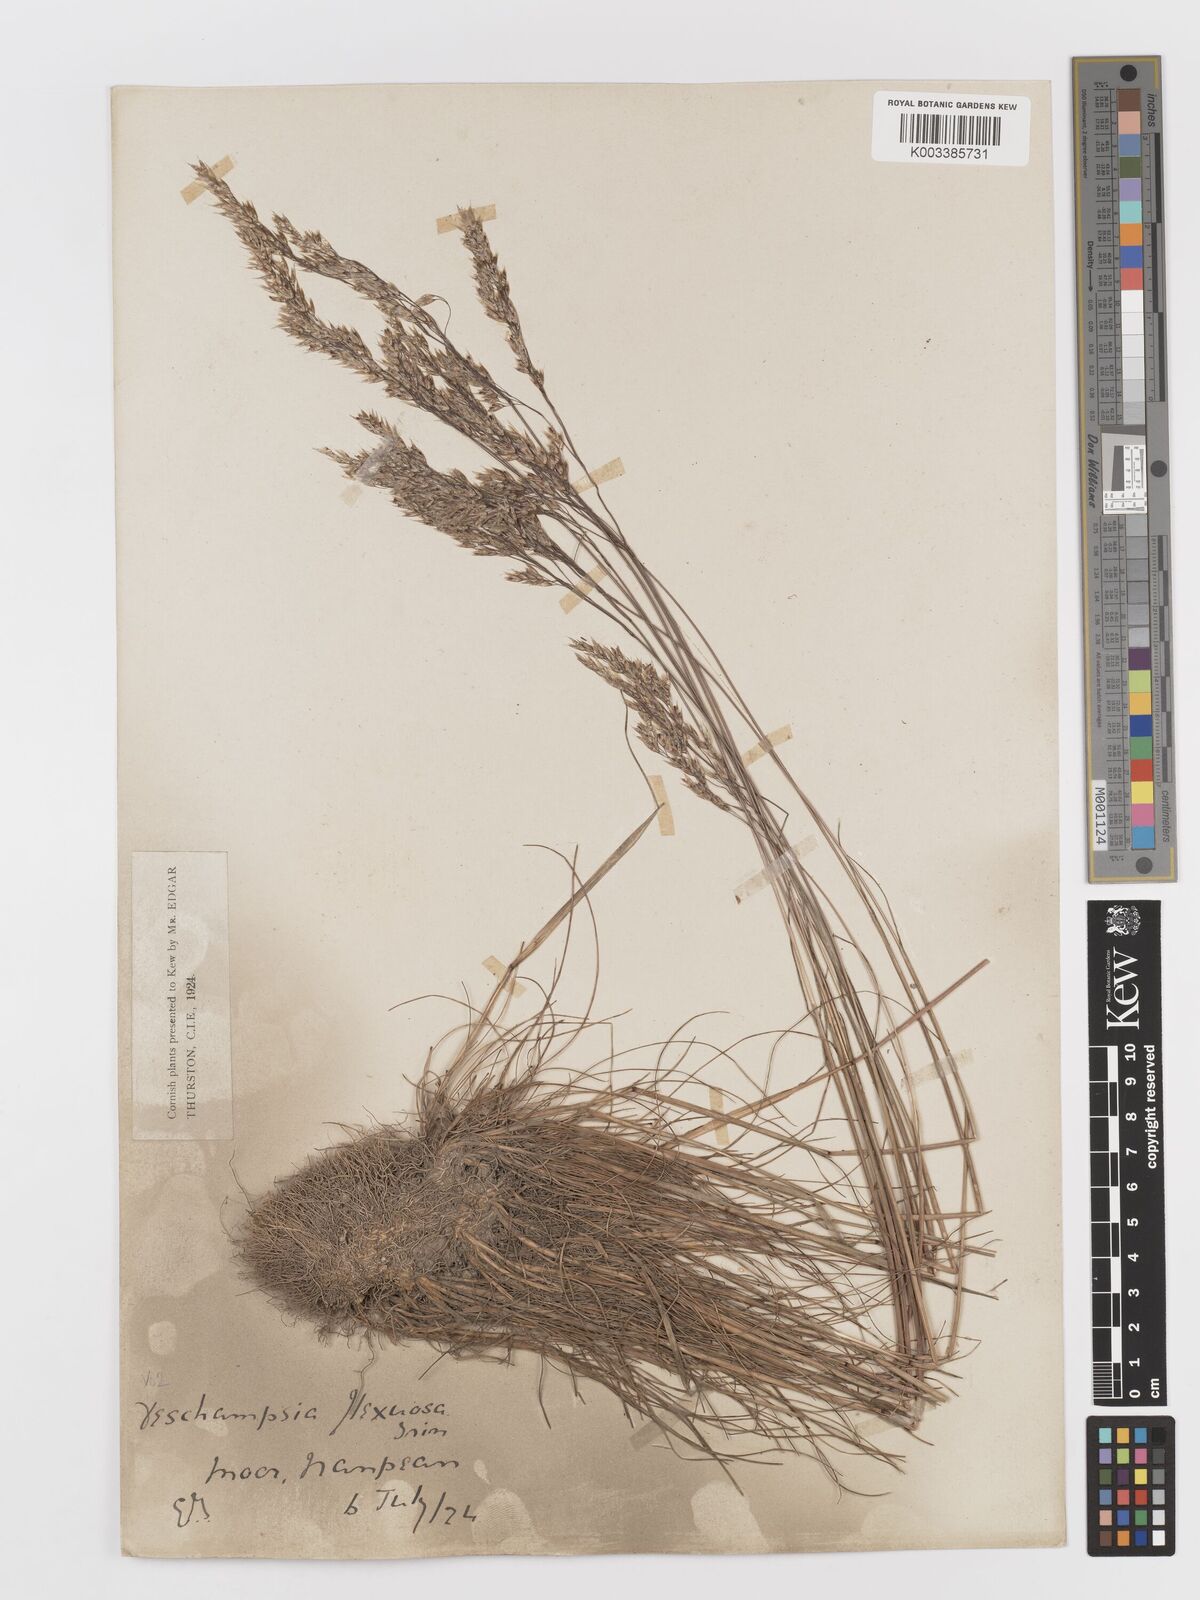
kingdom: Plantae
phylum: Tracheophyta
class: Liliopsida
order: Poales
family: Poaceae
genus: Avenella
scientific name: Avenella flexuosa
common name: Wavy hairgrass
